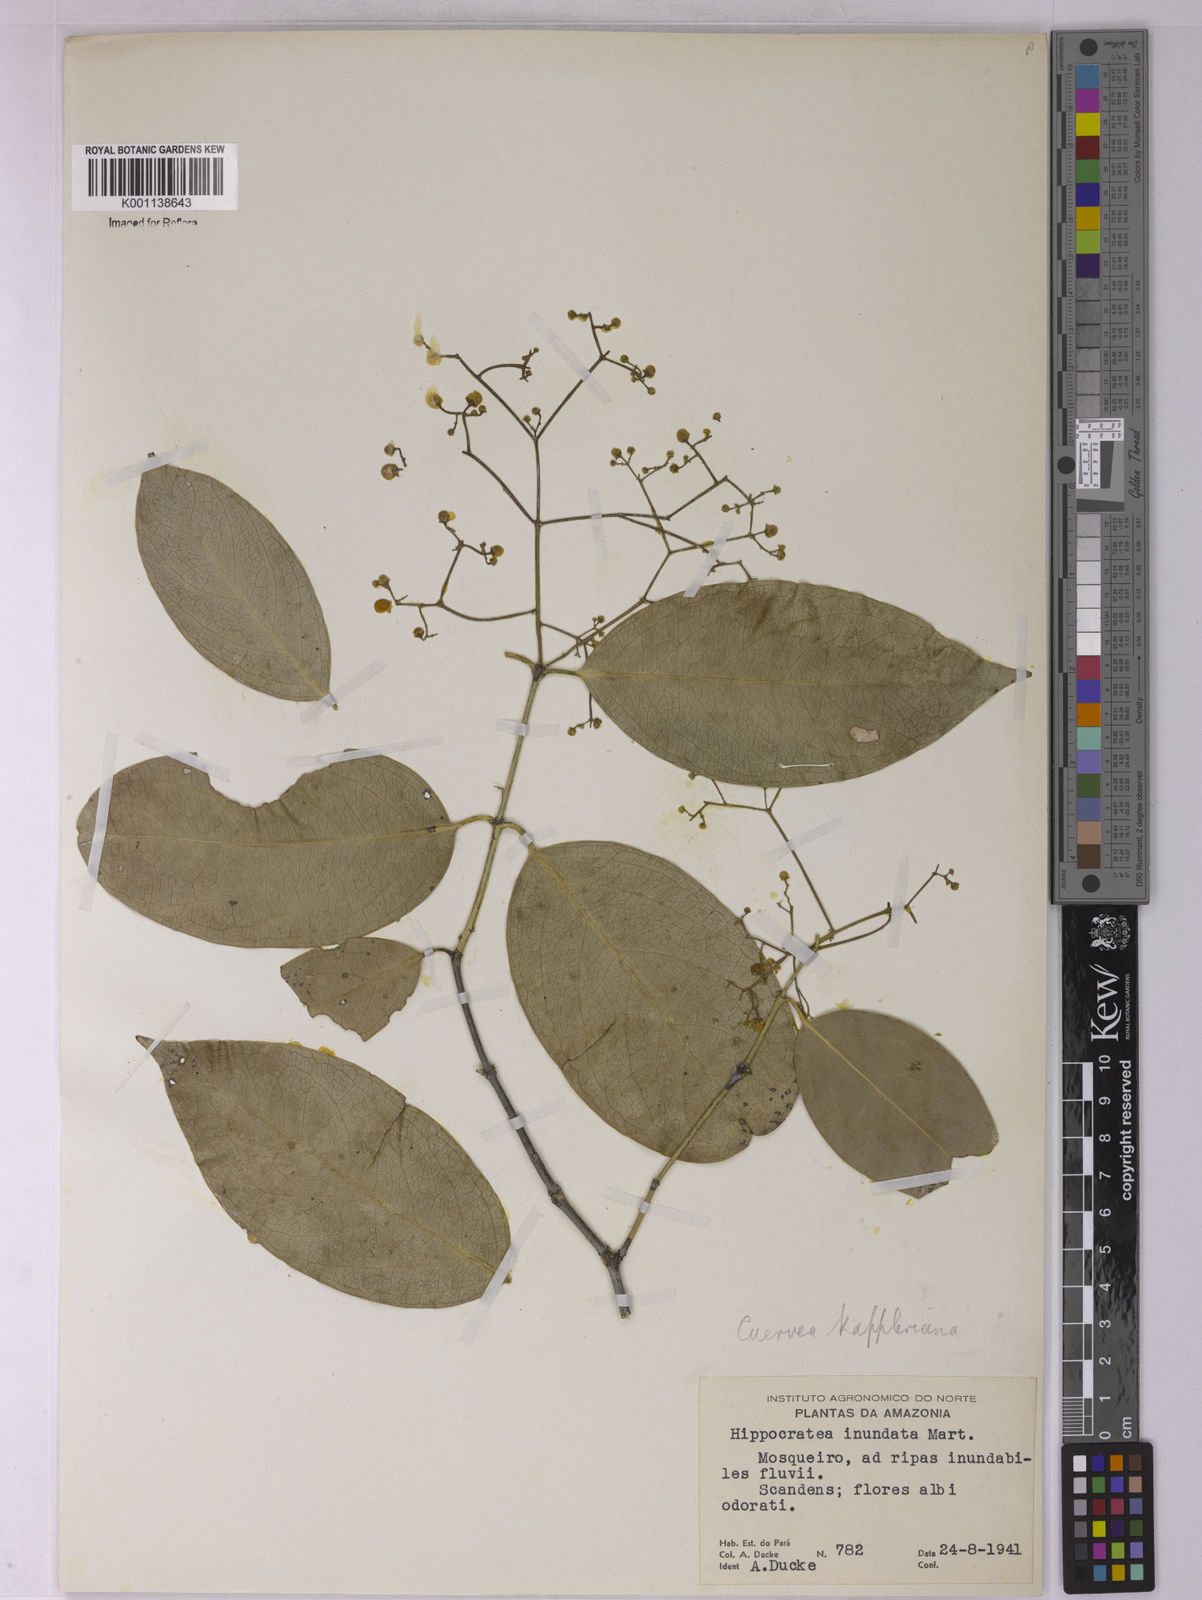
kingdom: Plantae
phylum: Tracheophyta
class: Magnoliopsida
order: Celastrales
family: Celastraceae
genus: Cuervea
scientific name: Cuervea kappleriana
